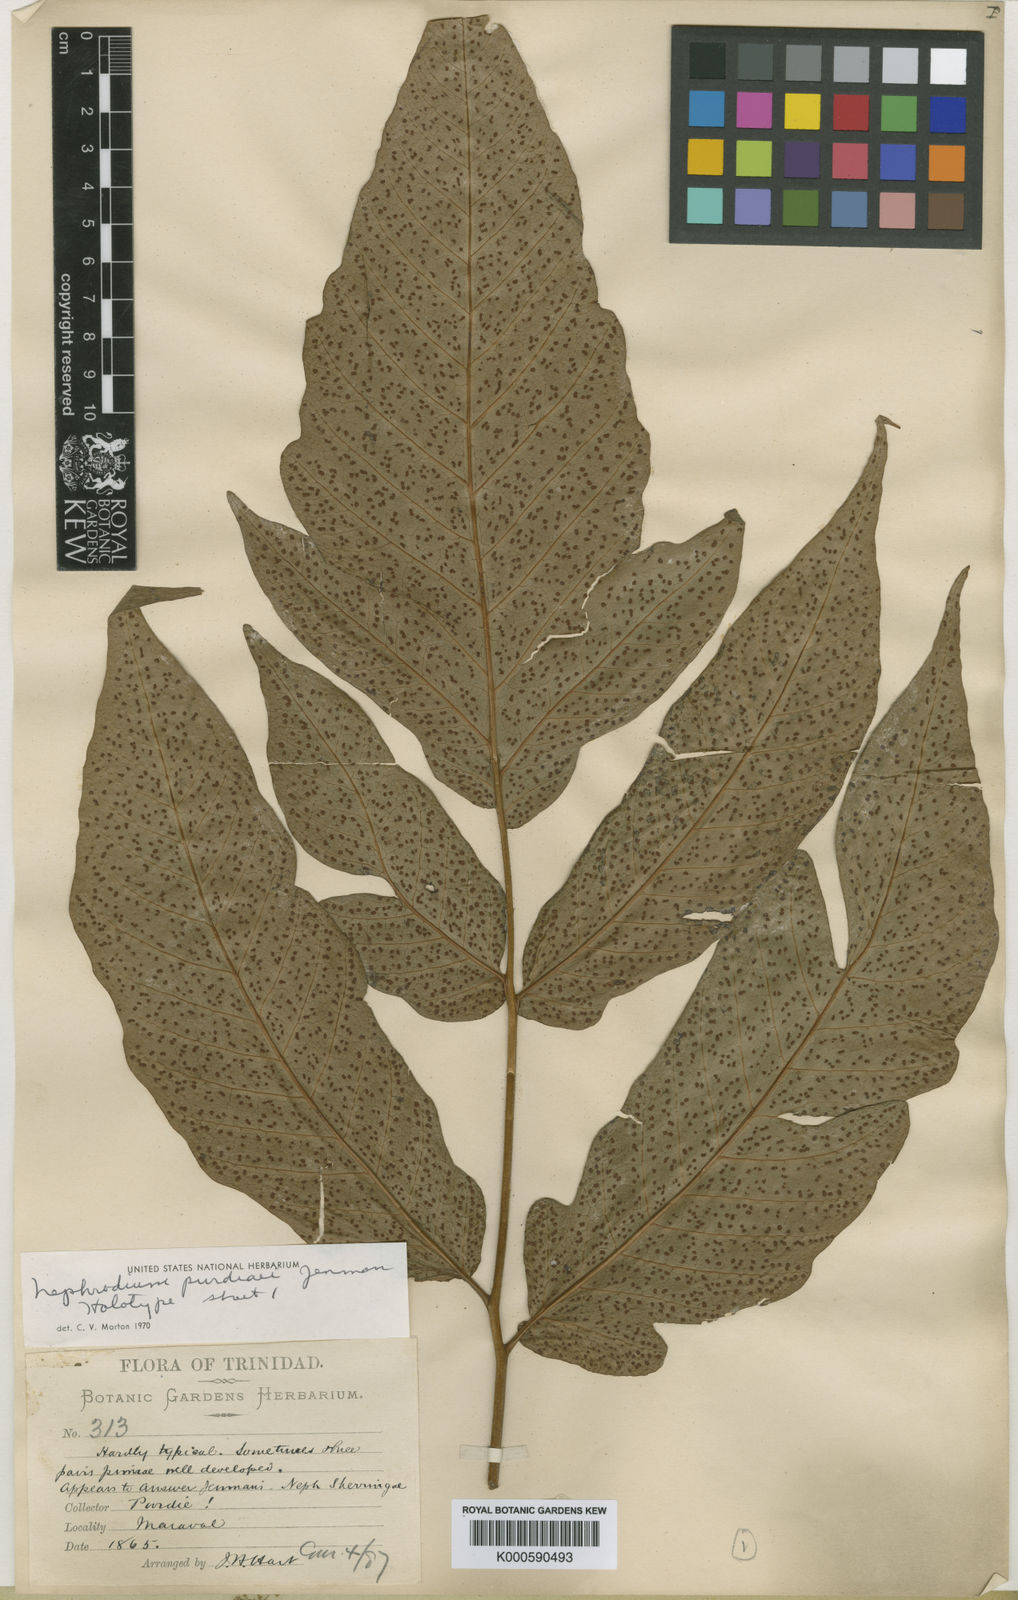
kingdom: Plantae
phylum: Tracheophyta
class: Polypodiopsida
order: Polypodiales
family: Tectariaceae
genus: Tectaria
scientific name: Tectaria trifoliata
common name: Threeleaf halberd fern
